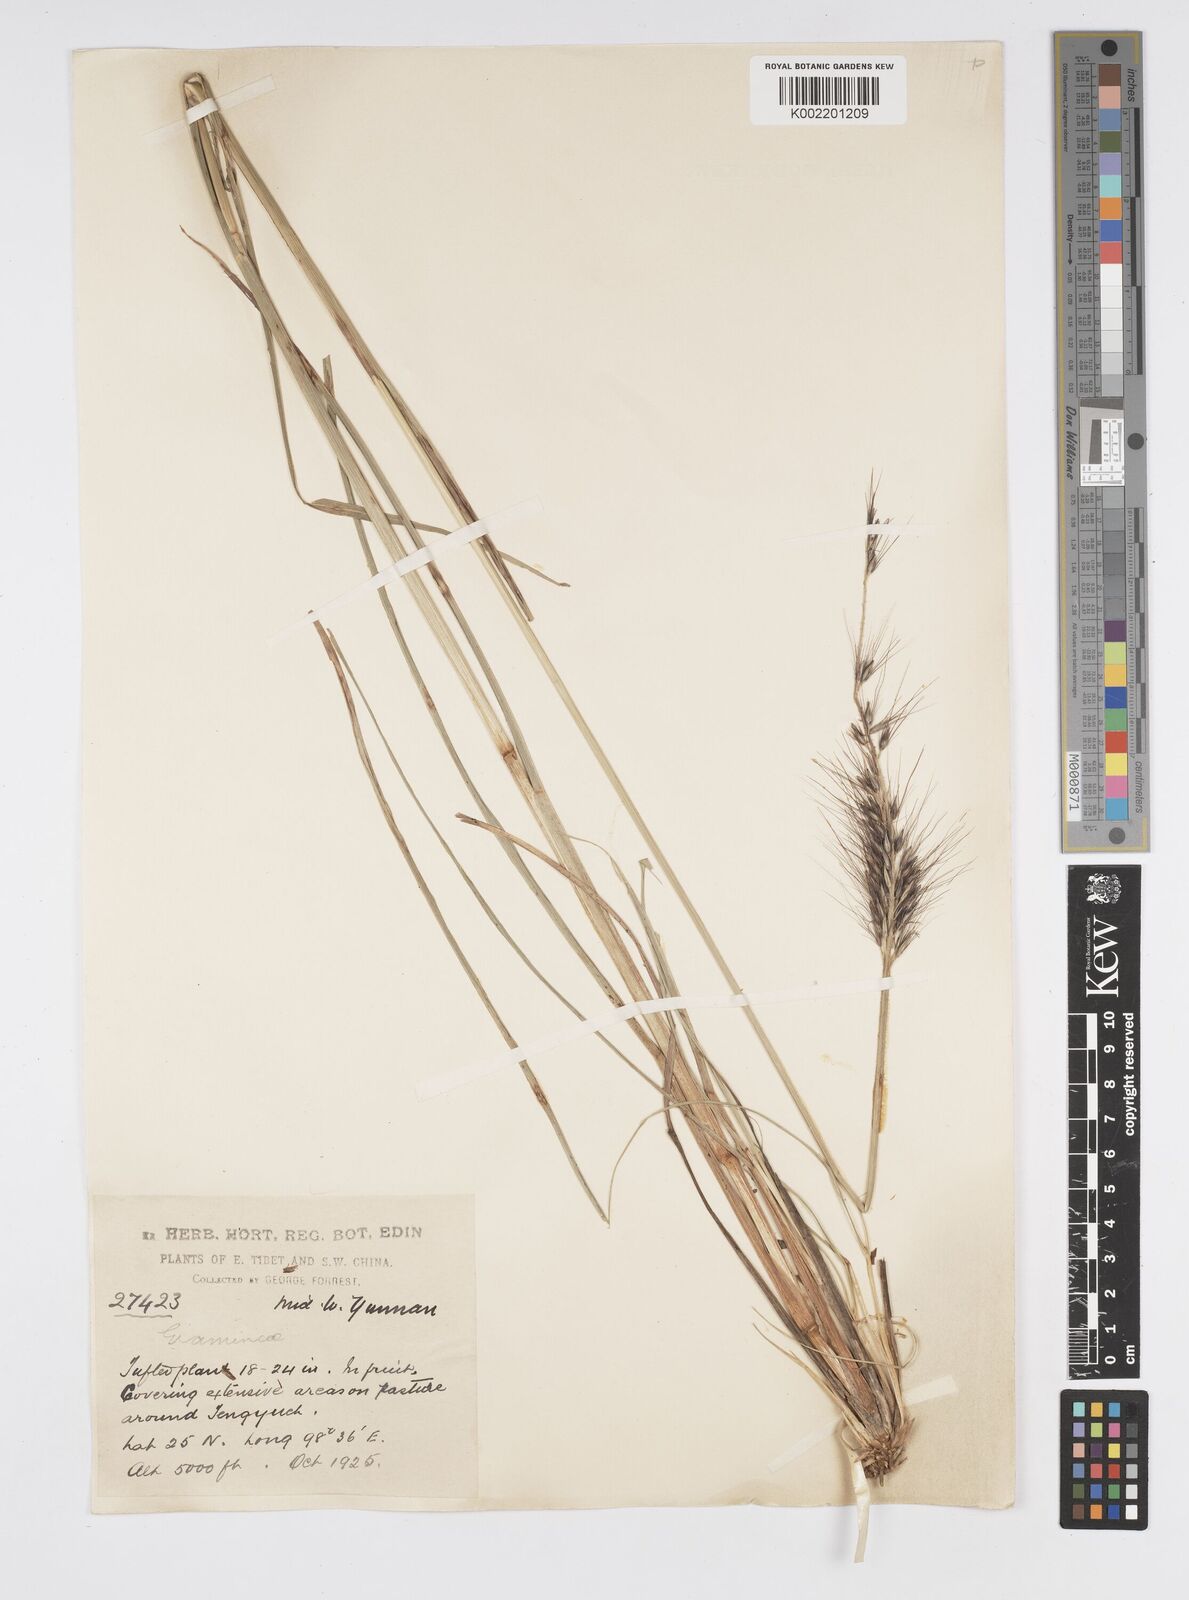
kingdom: Plantae
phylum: Tracheophyta
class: Liliopsida
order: Poales
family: Poaceae
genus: Cenchrus
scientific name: Cenchrus alopecuroides
